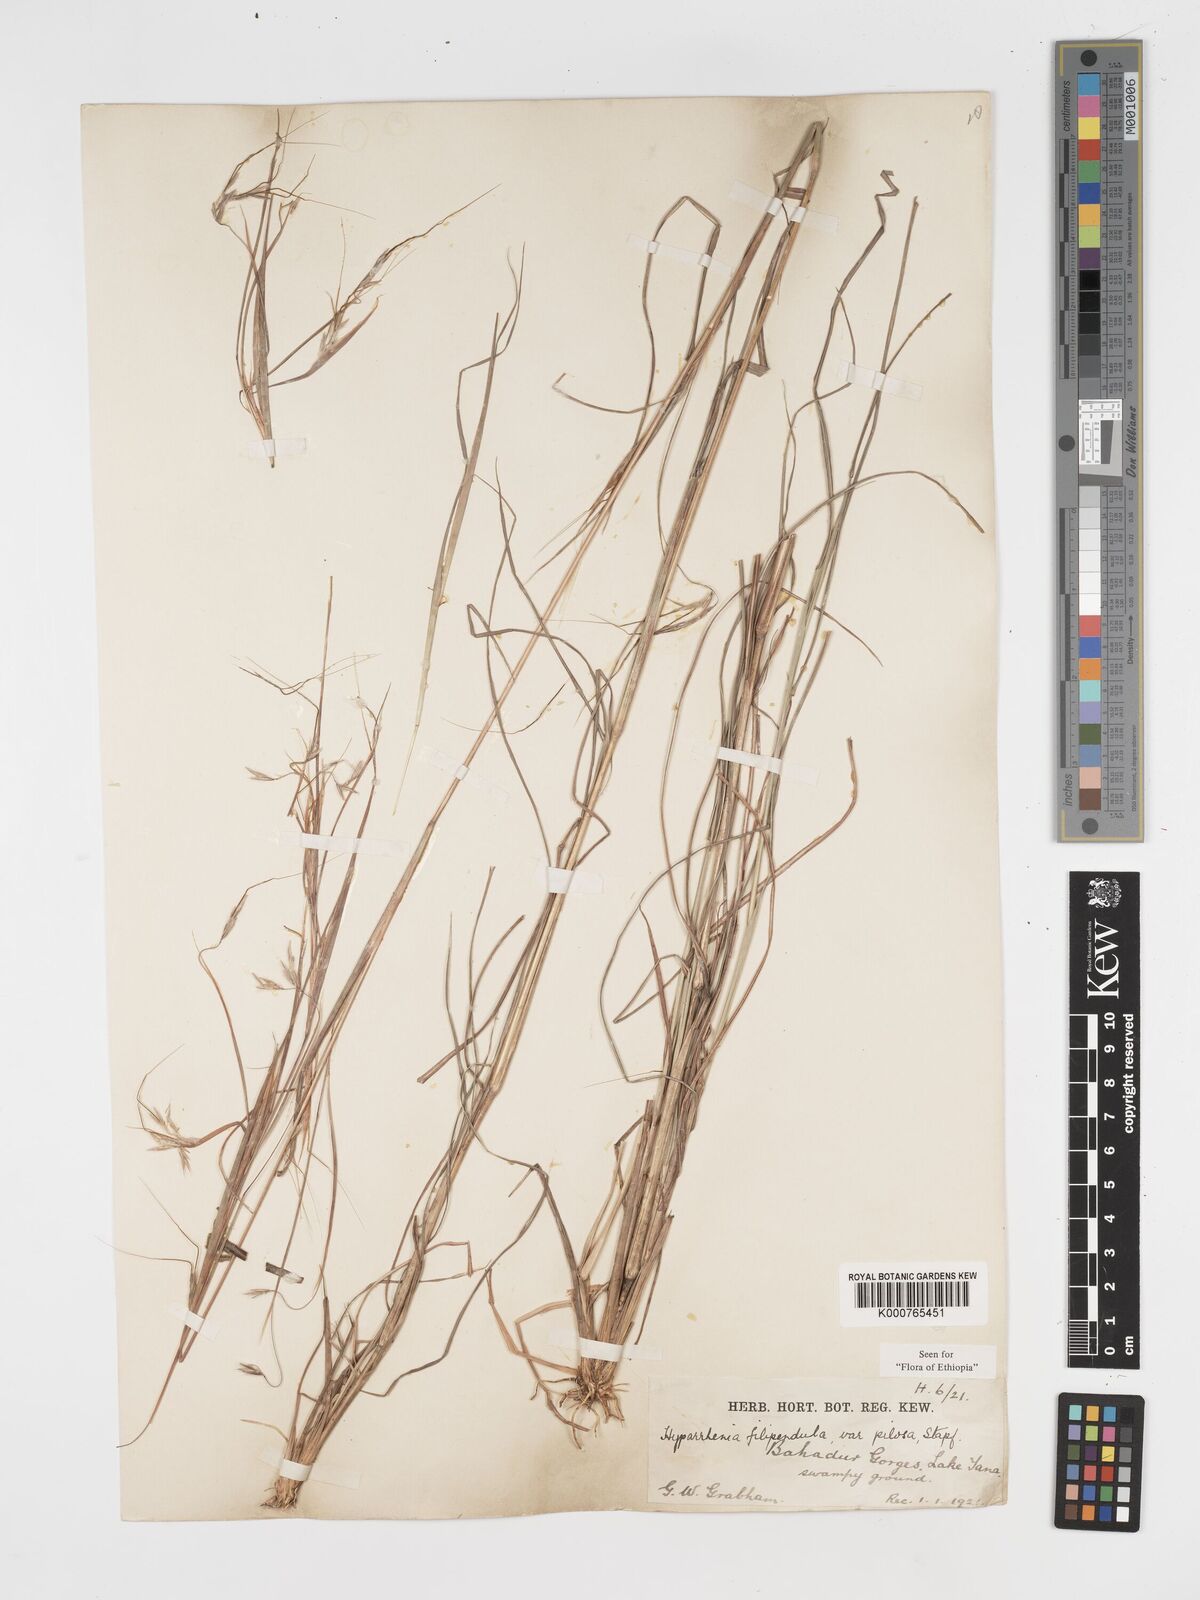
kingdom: Plantae
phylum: Tracheophyta
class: Liliopsida
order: Poales
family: Poaceae
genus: Hyparrhenia
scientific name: Hyparrhenia filipendula
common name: Tambookie grass
